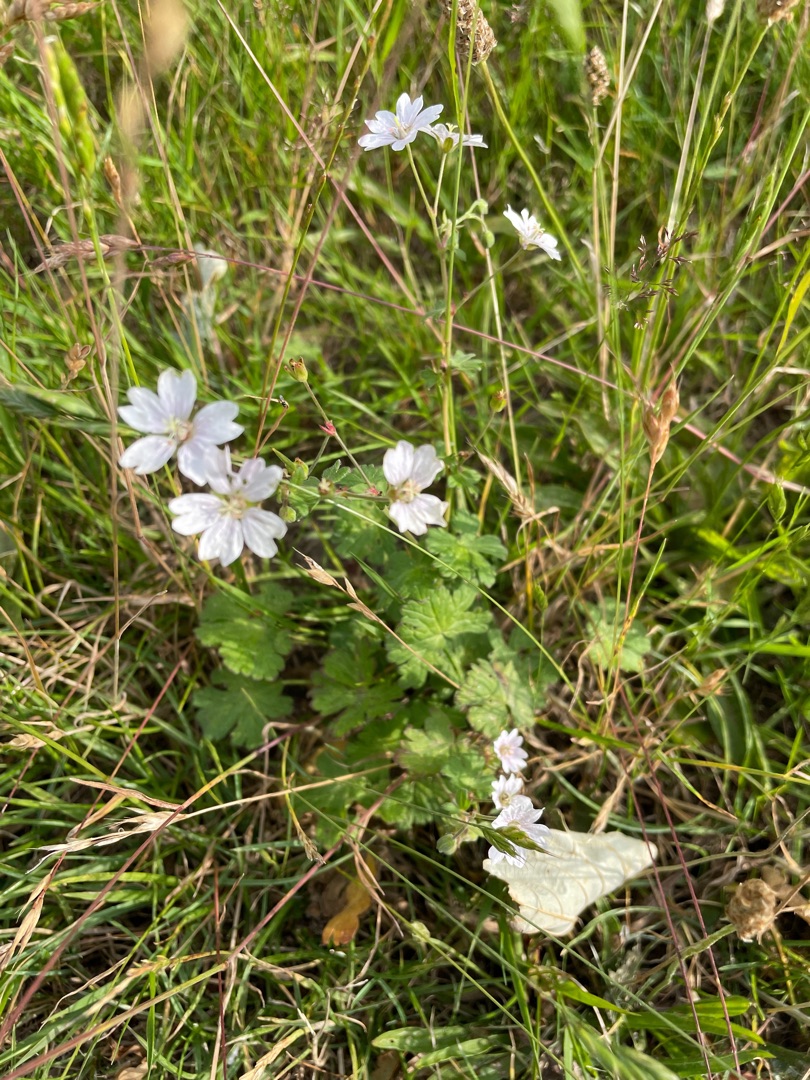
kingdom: Plantae
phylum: Tracheophyta
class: Magnoliopsida
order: Geraniales
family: Geraniaceae
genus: Geranium
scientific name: Geranium pyrenaicum
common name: Pyrenæisk storkenæb
